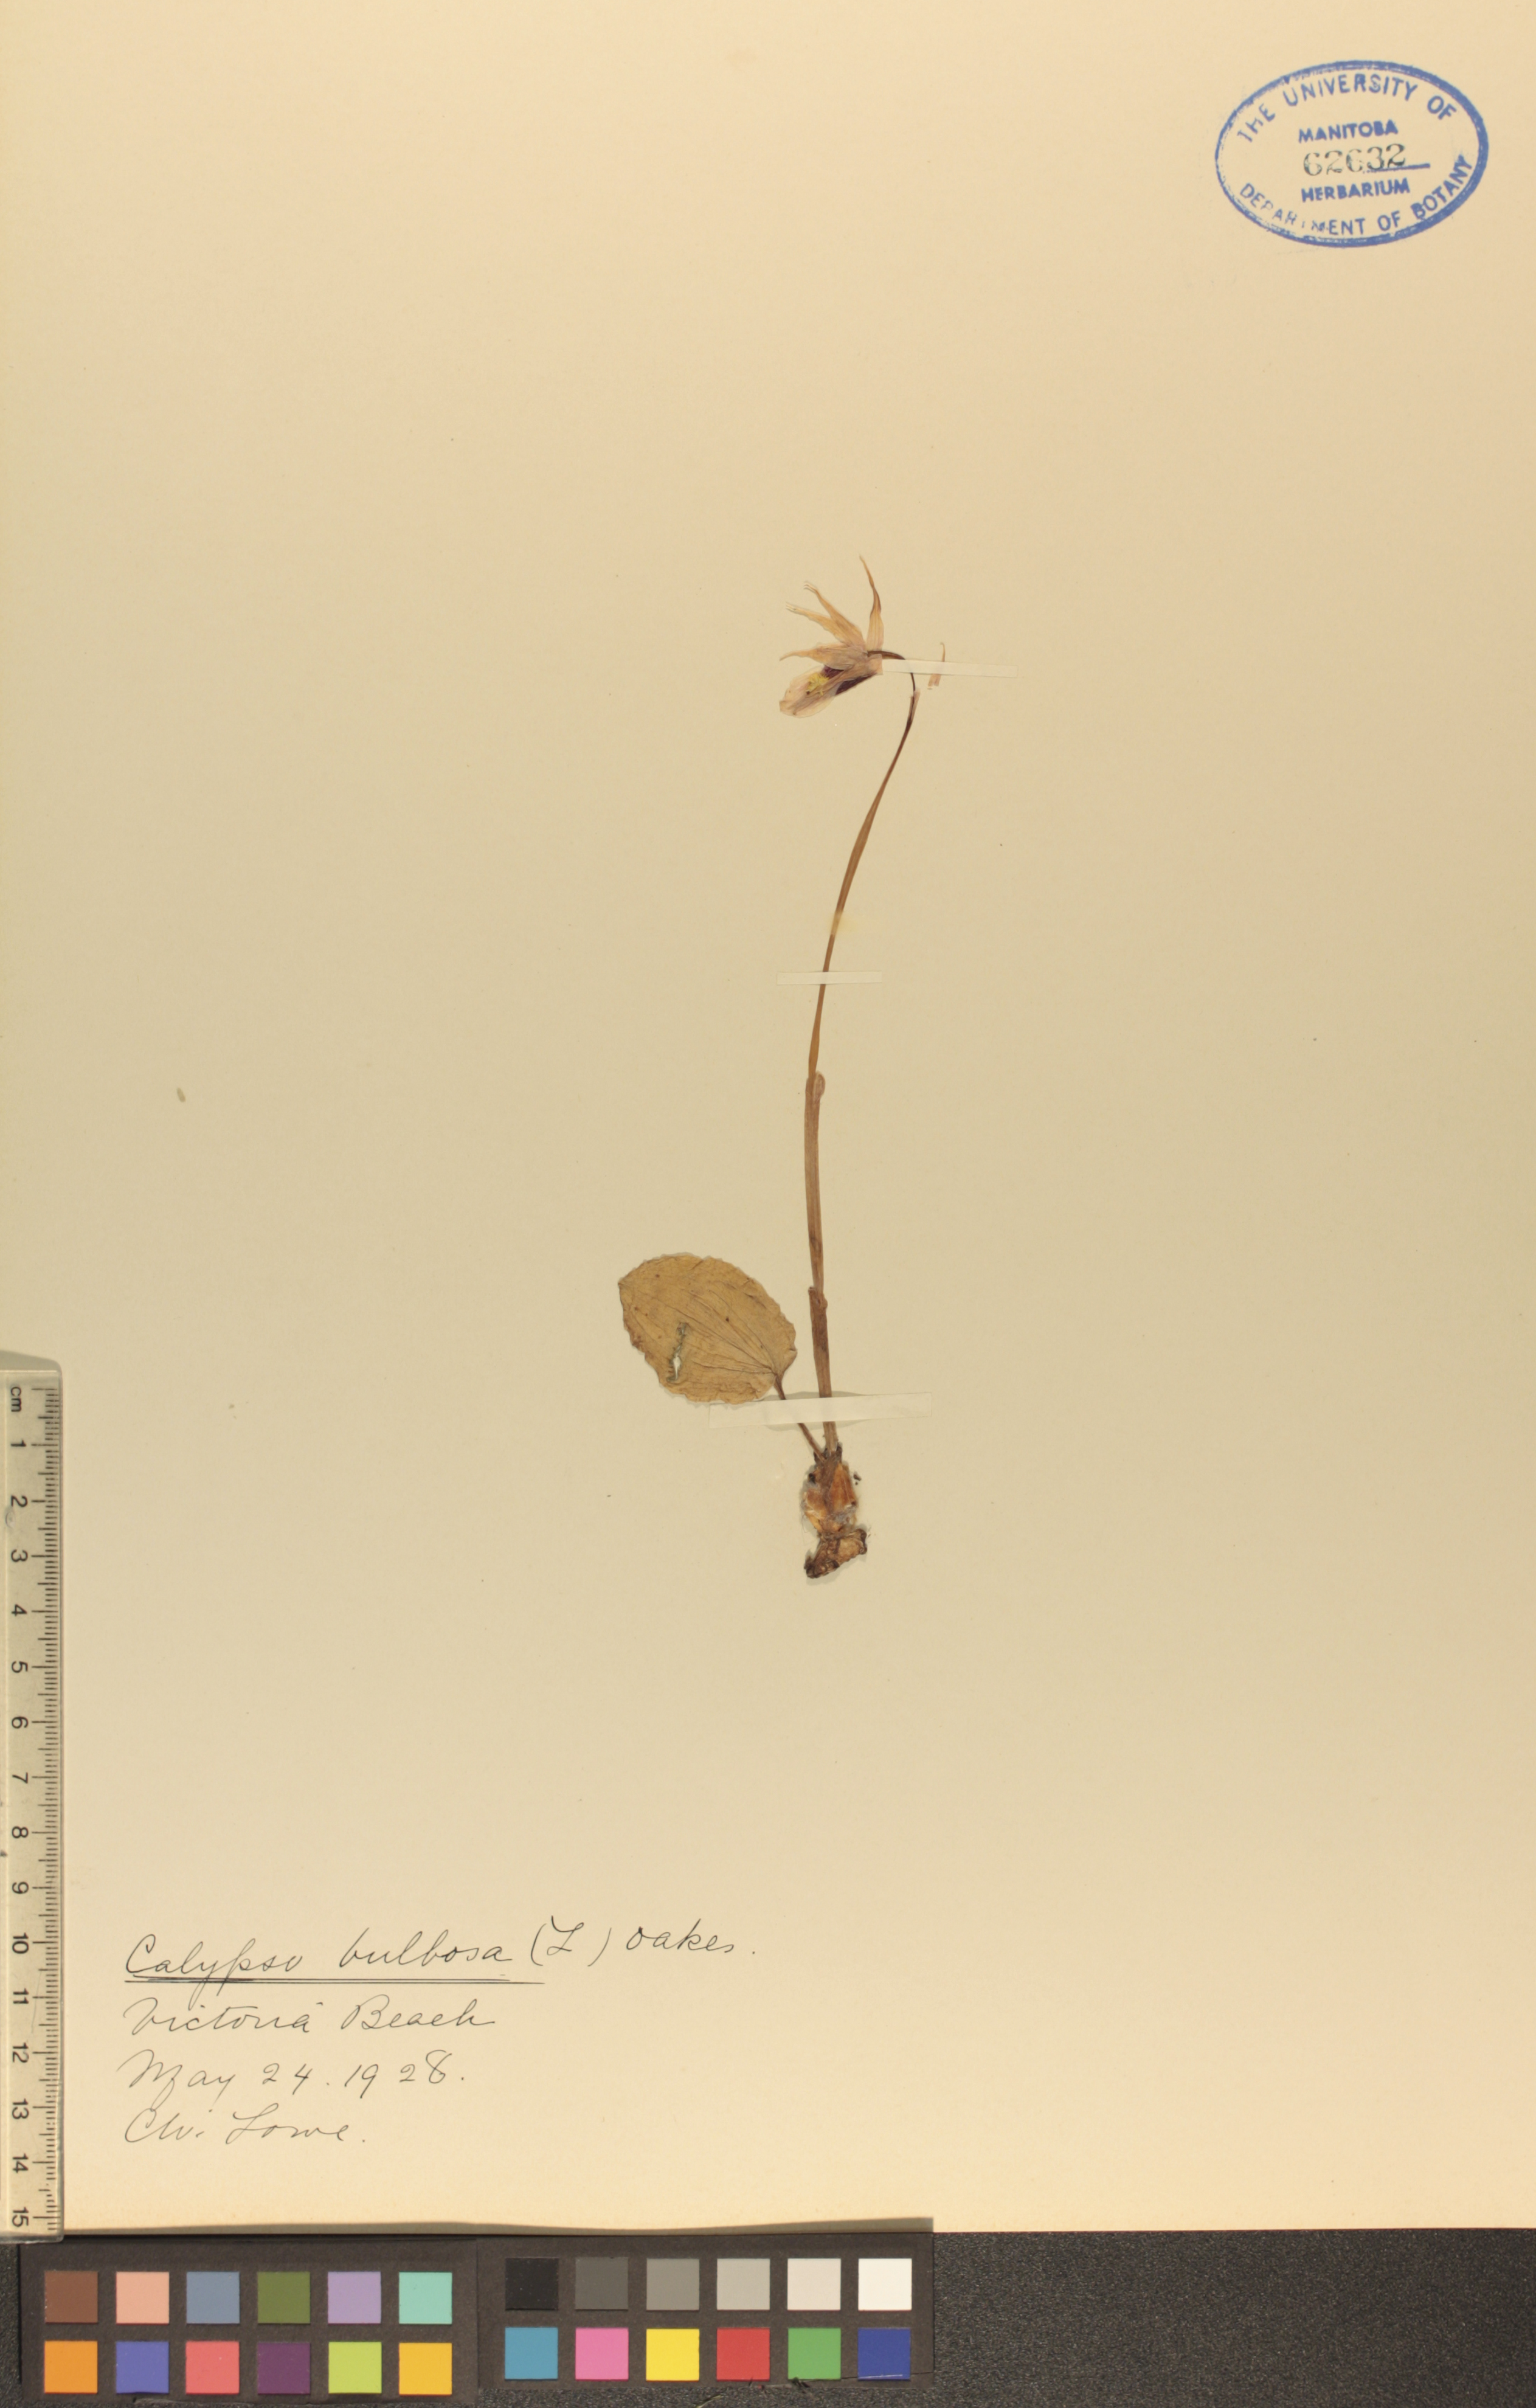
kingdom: Plantae
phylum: Tracheophyta
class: Liliopsida
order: Asparagales
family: Orchidaceae
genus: Calypso
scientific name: Calypso bulbosa
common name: Calypso
